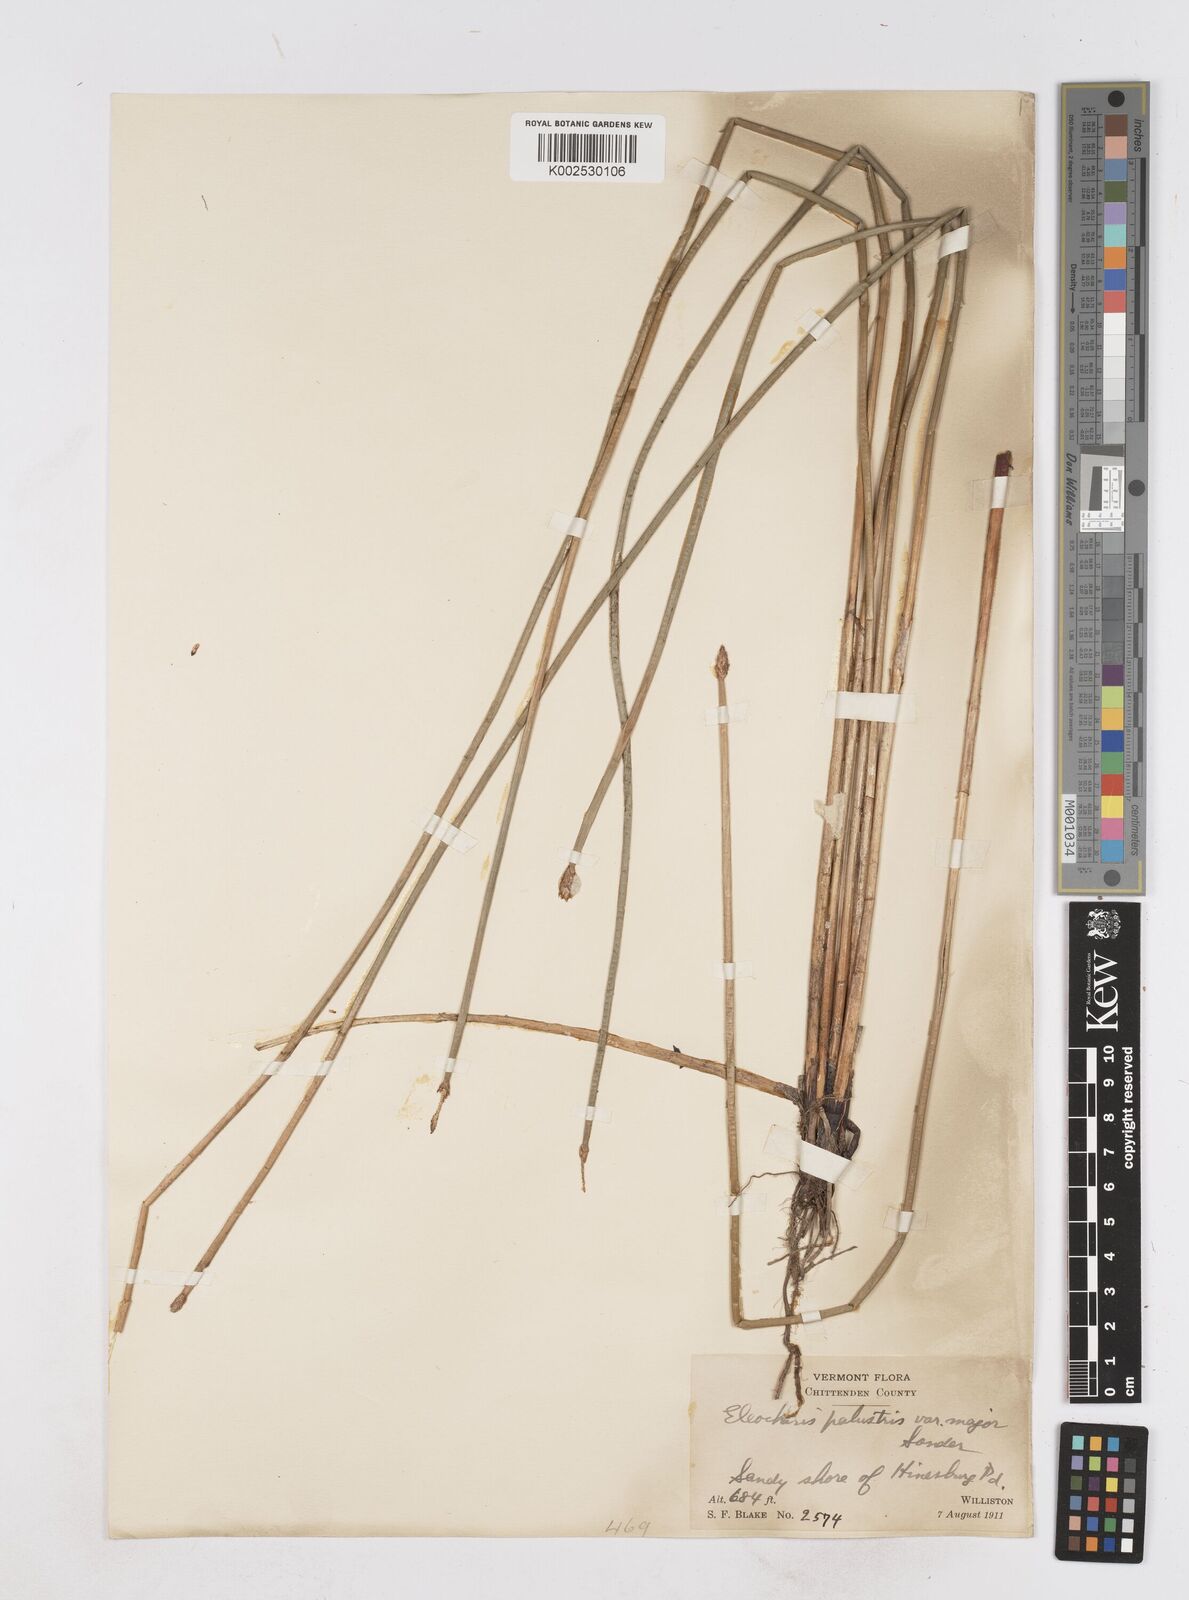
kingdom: Plantae
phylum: Tracheophyta
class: Liliopsida
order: Poales
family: Cyperaceae
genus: Eleocharis
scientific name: Eleocharis palustris
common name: Common spike-rush
